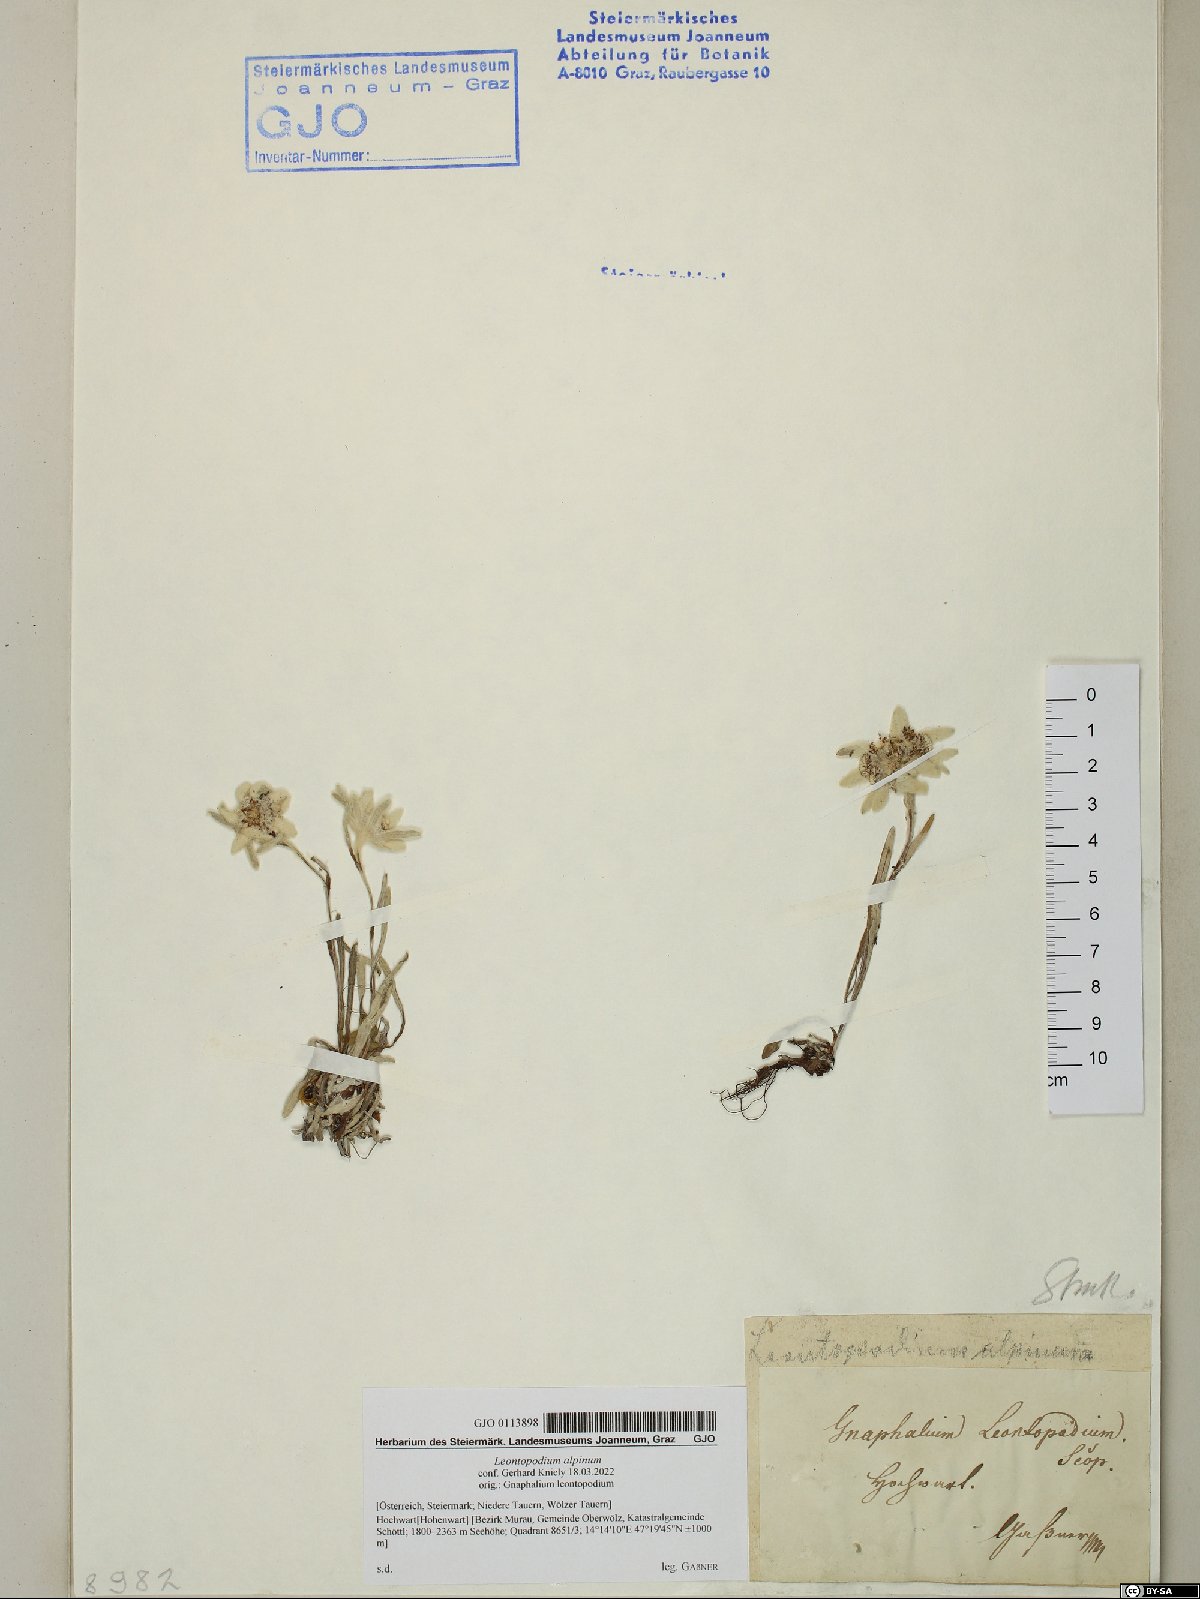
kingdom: Plantae
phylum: Tracheophyta
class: Magnoliopsida
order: Asterales
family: Asteraceae
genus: Leontopodium
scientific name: Leontopodium nivale
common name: Edelweiss
